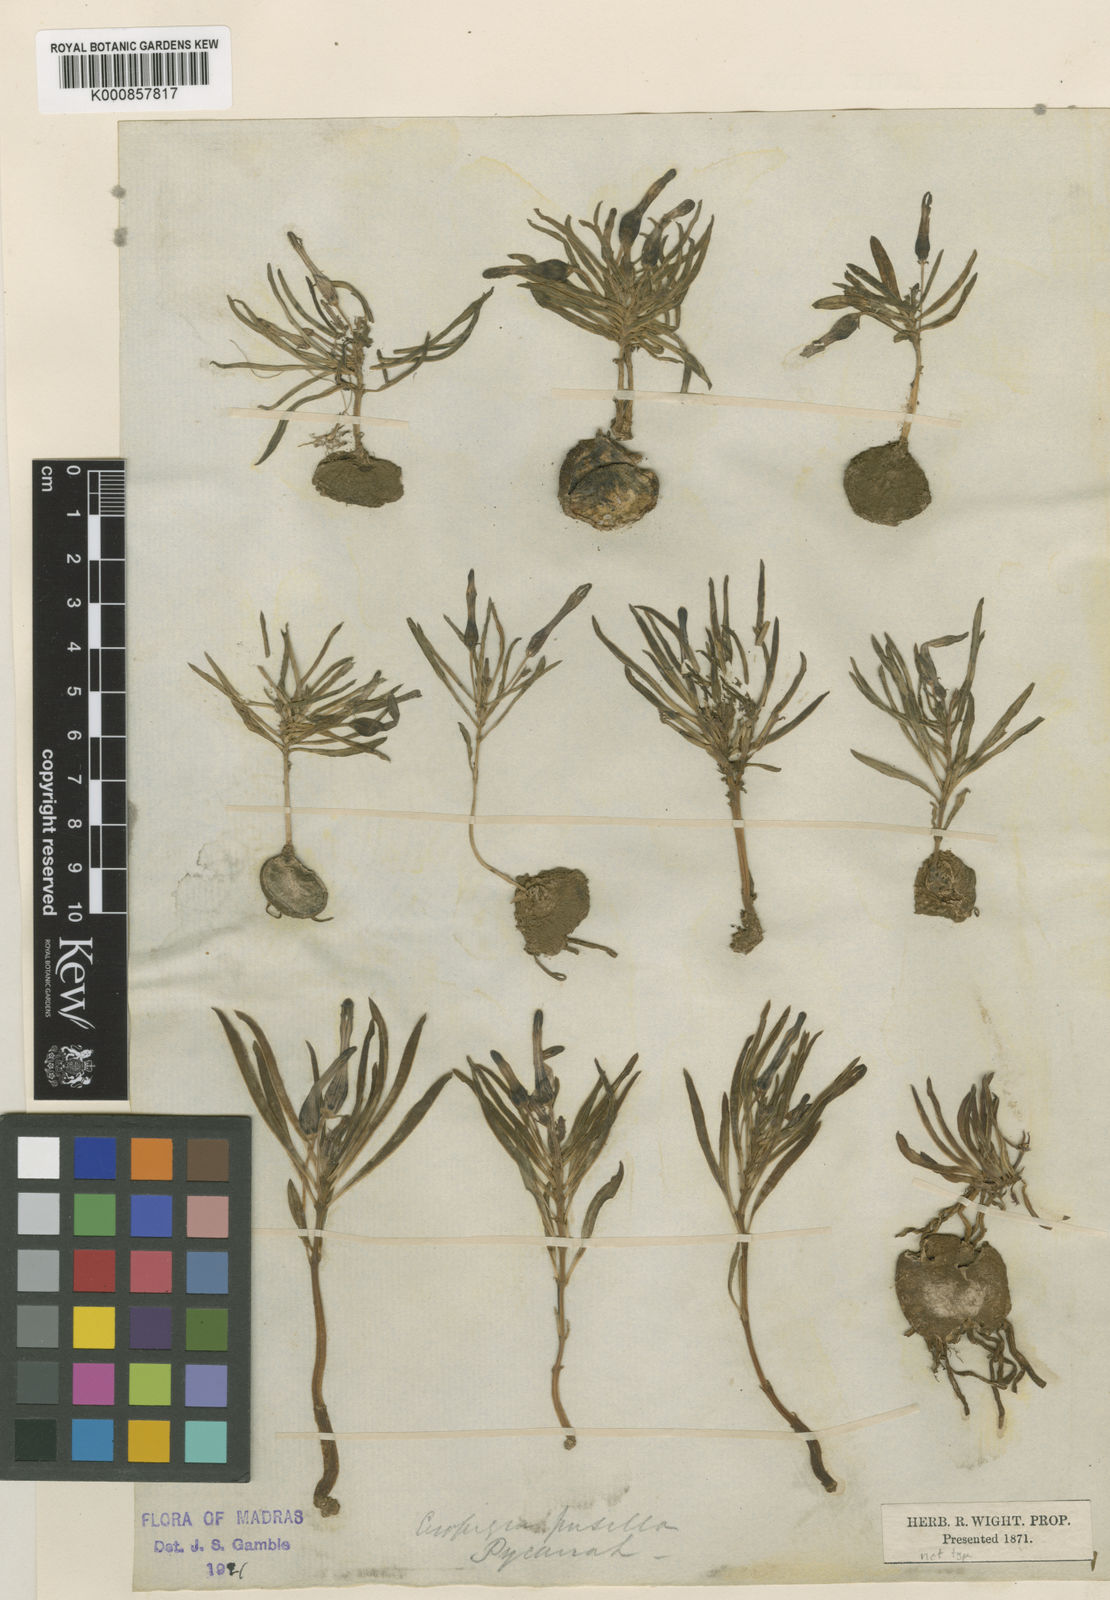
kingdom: Plantae
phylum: Tracheophyta
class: Magnoliopsida
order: Gentianales
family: Apocynaceae
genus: Ceropegia
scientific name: Ceropegia pusilla
